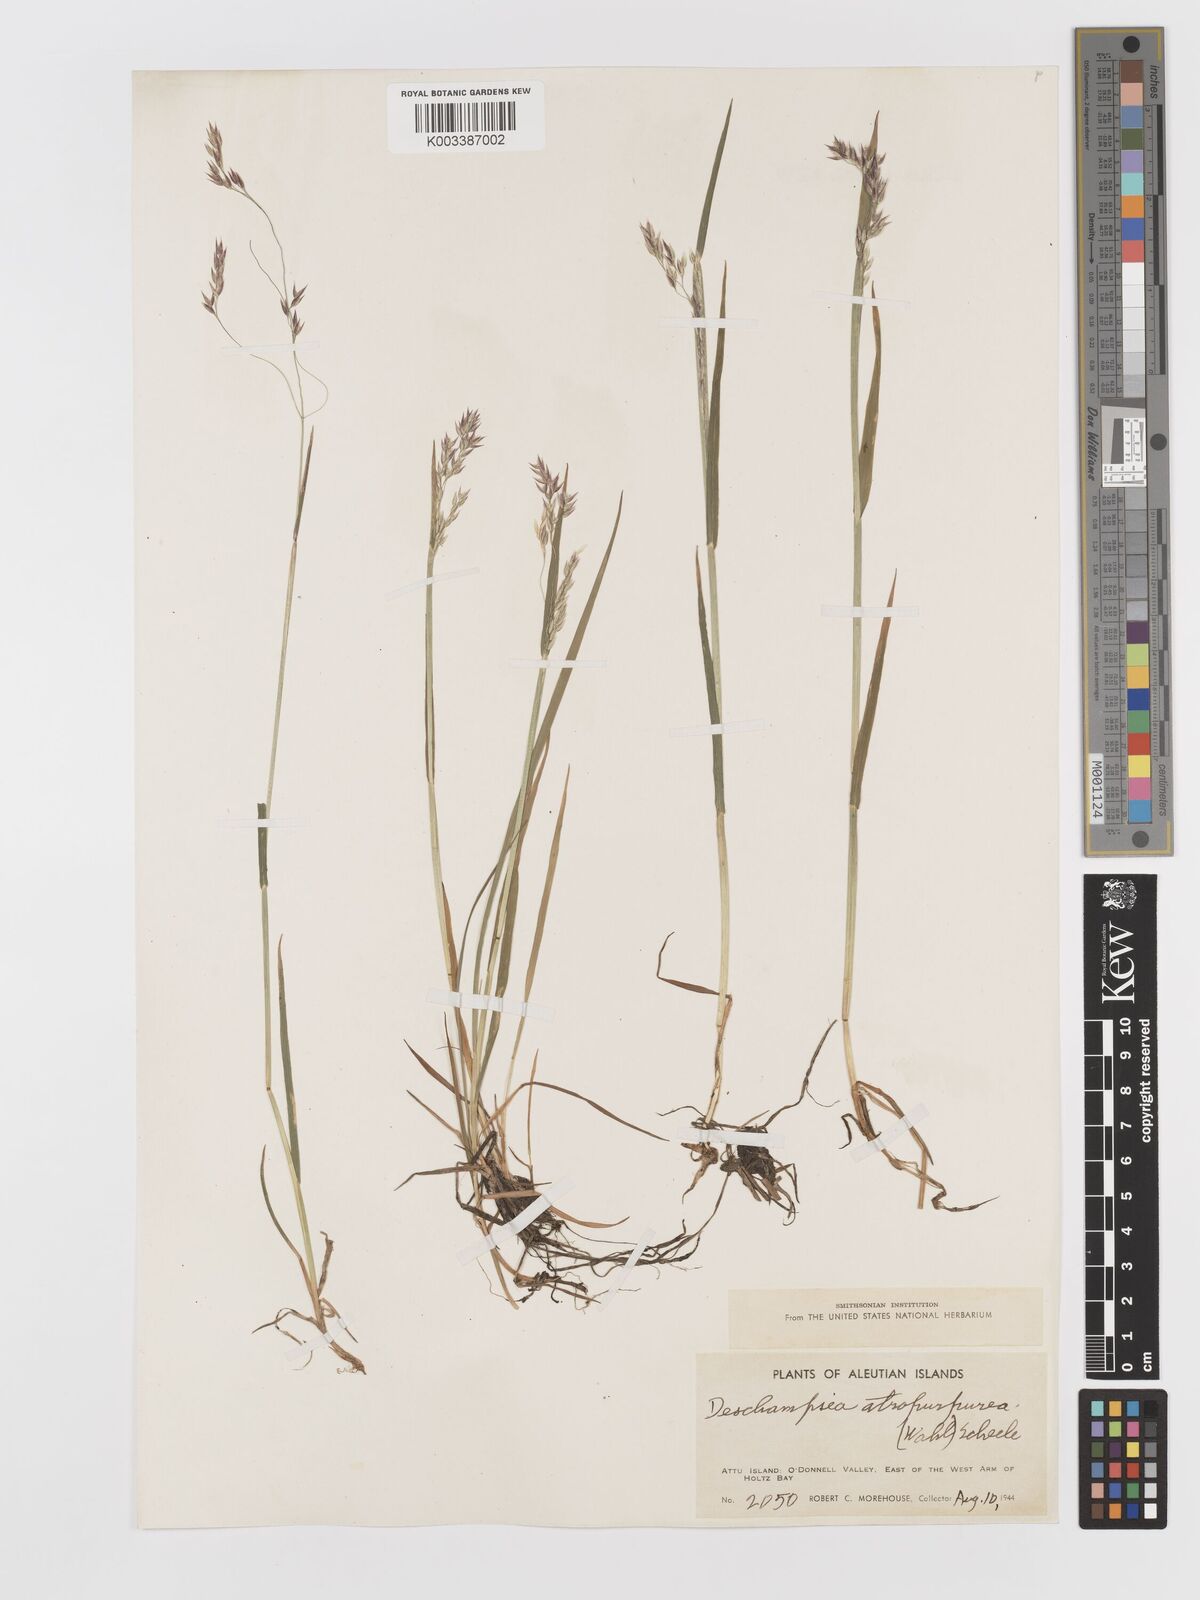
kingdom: Plantae
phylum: Tracheophyta
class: Liliopsida
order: Poales
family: Poaceae
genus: Vahlodea
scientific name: Vahlodea atropurpurea
